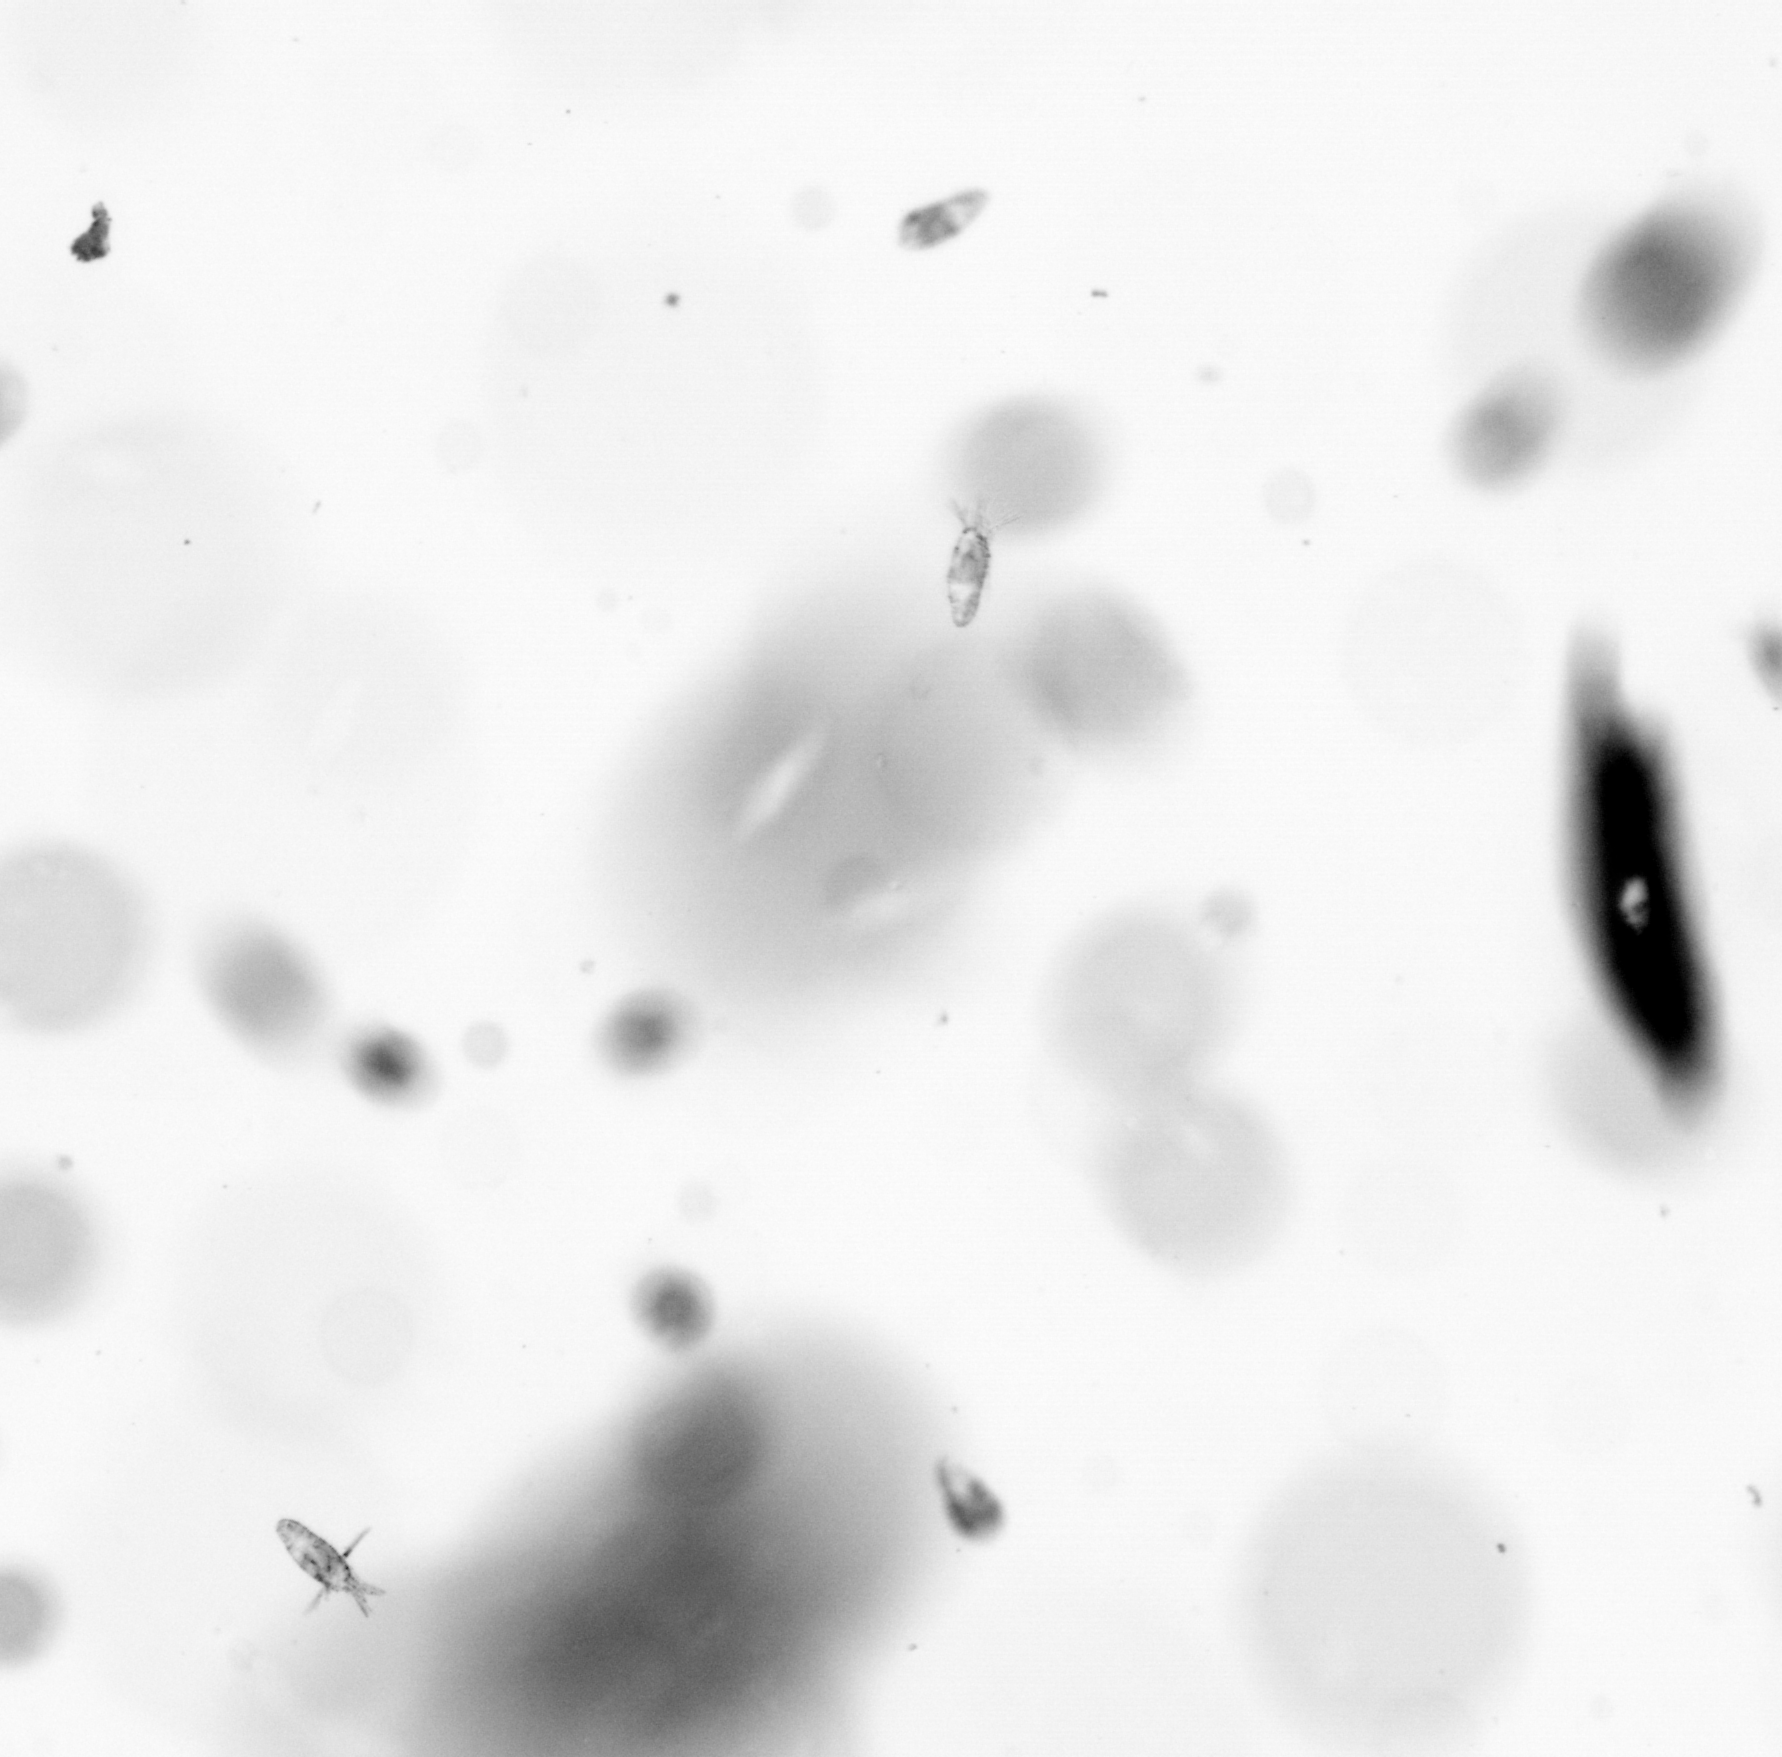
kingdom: Animalia
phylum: Arthropoda
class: Copepoda
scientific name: Copepoda
